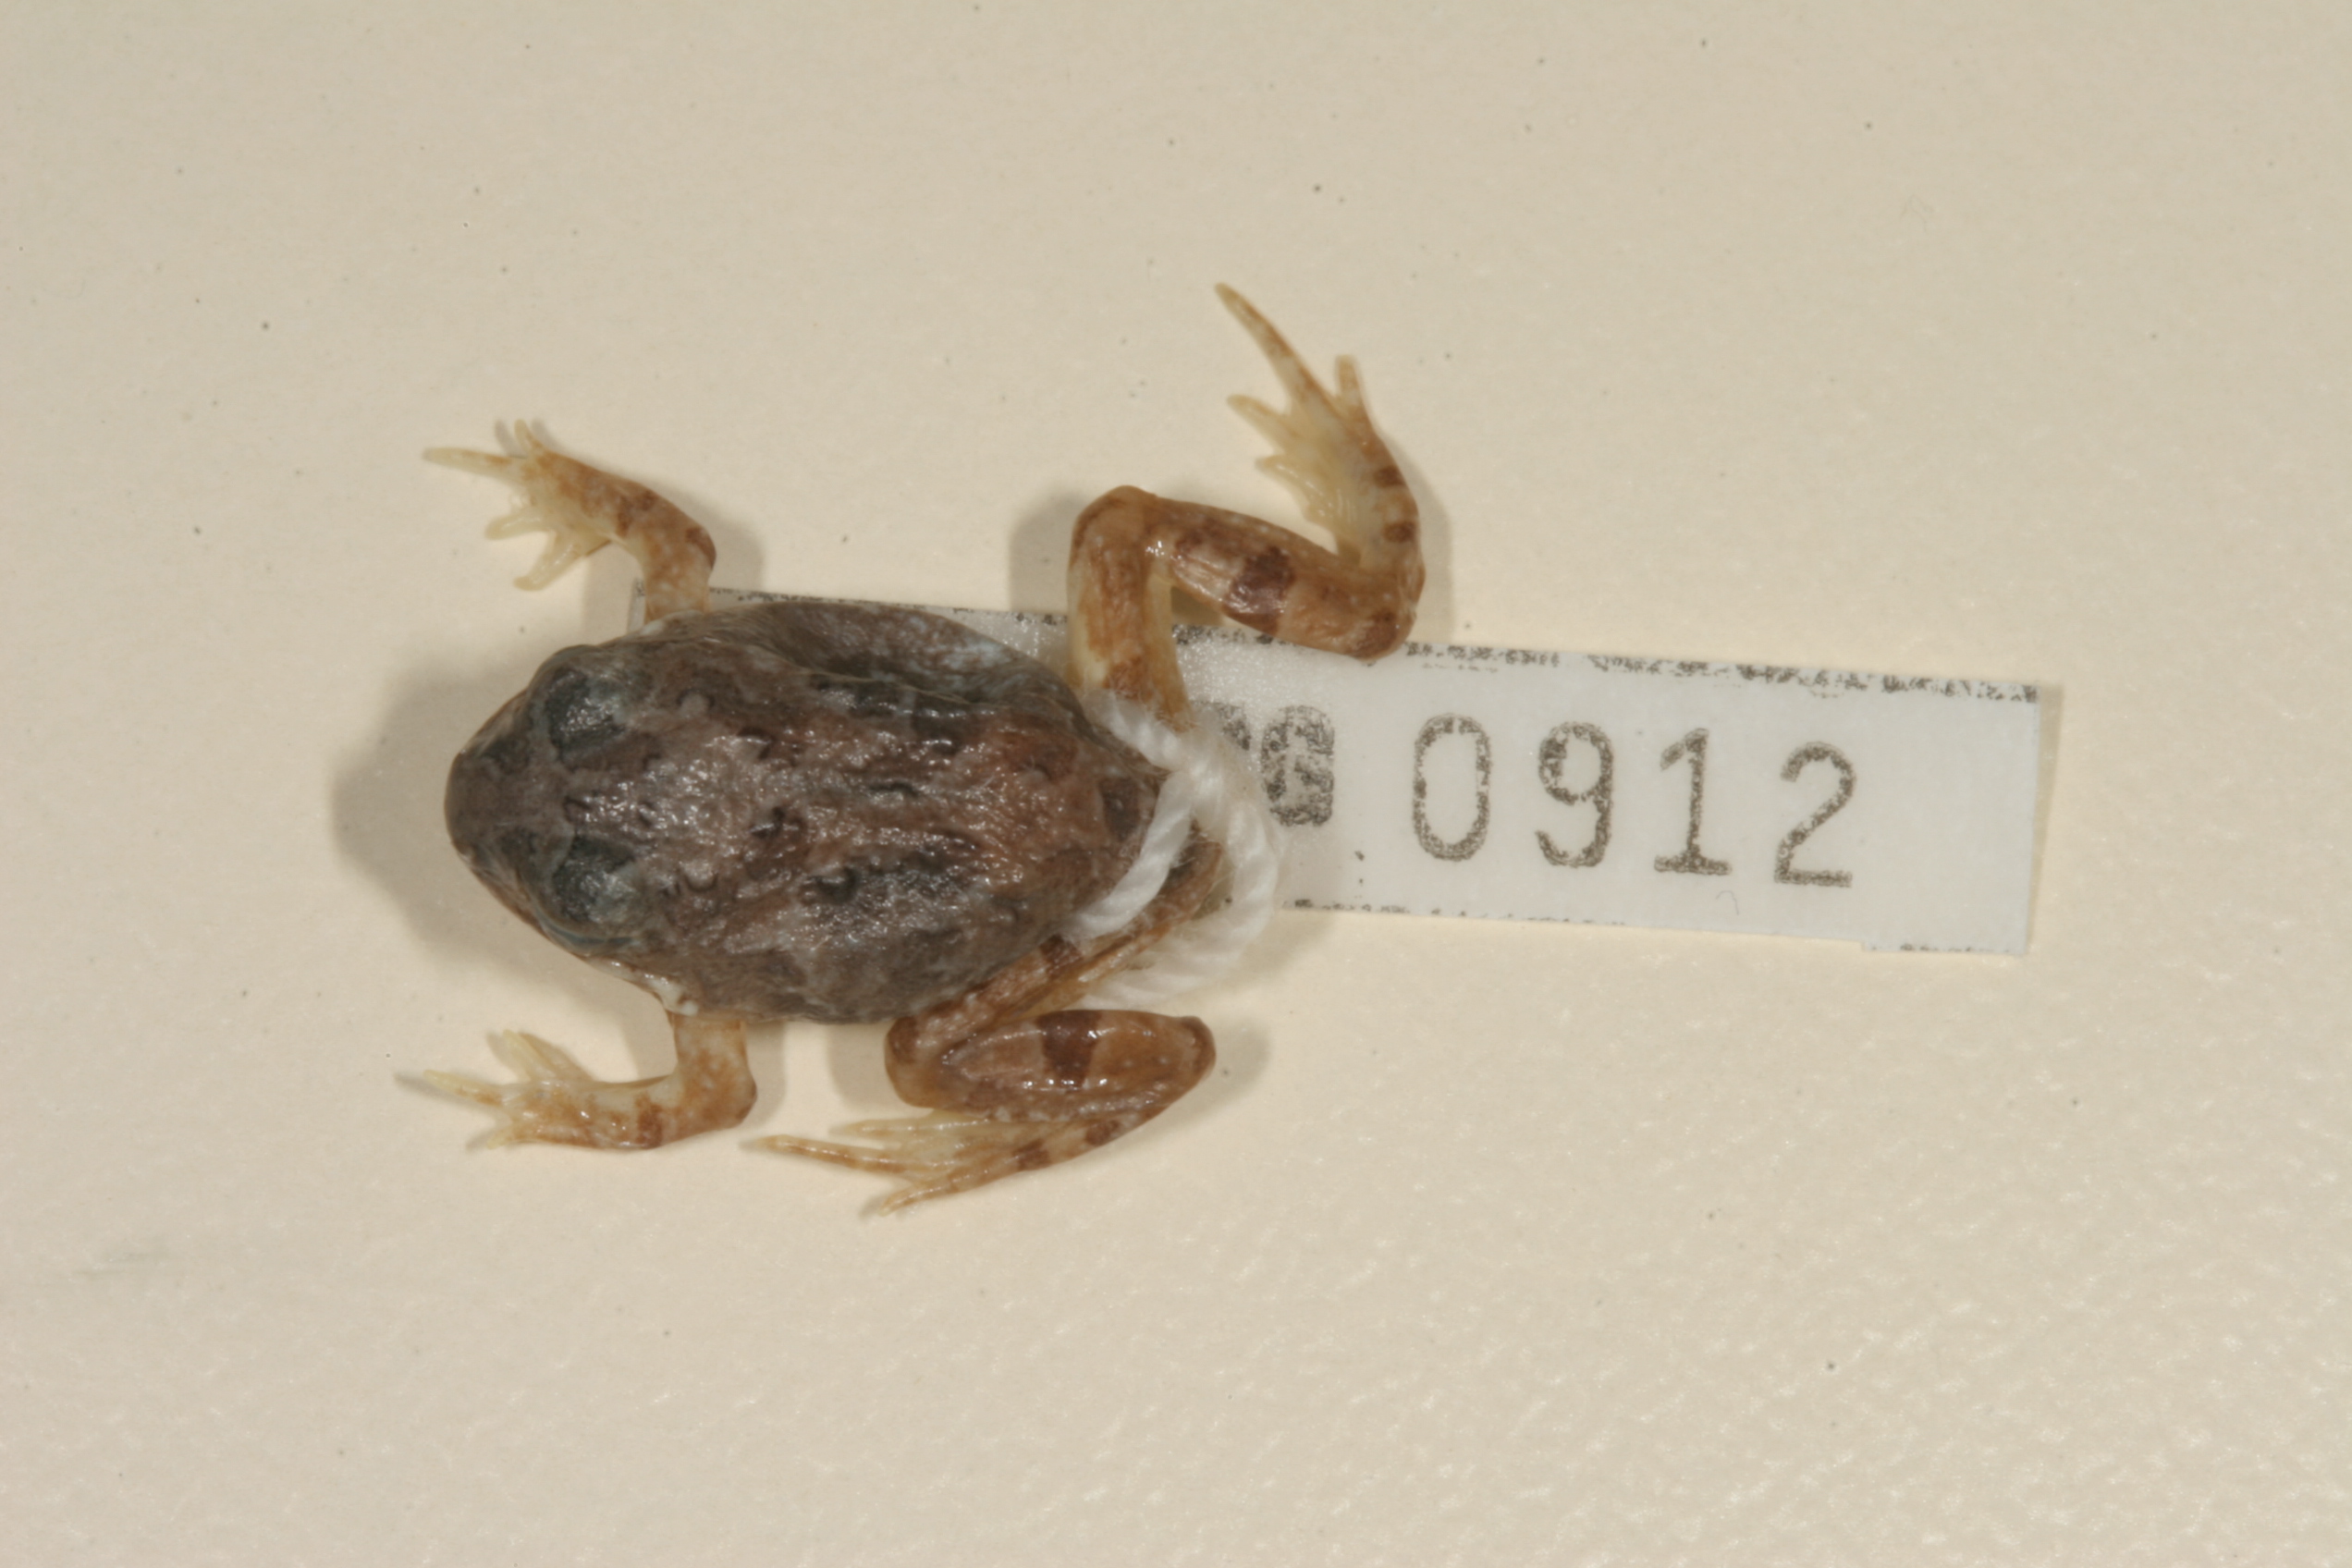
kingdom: Animalia
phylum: Chordata
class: Amphibia
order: Anura
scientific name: Anura
